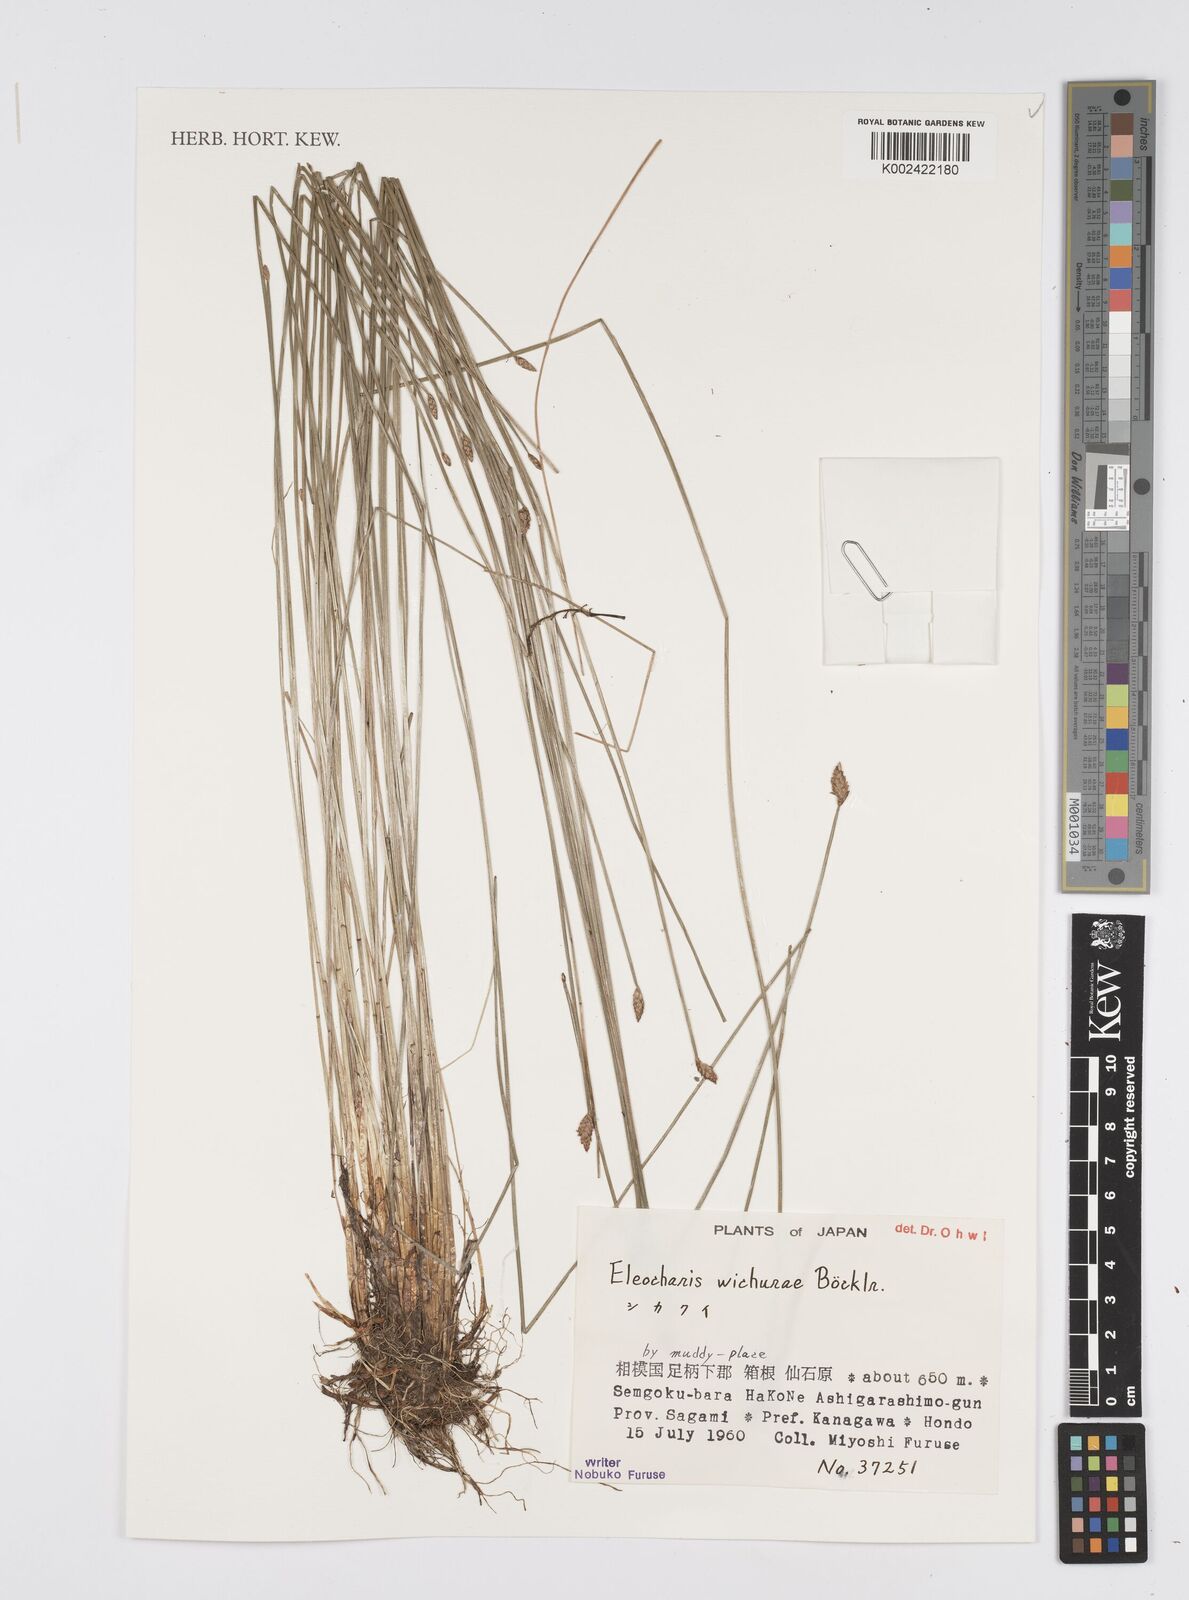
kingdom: Plantae
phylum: Tracheophyta
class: Liliopsida
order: Poales
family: Cyperaceae
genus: Eleocharis
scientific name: Eleocharis tetraquetra
